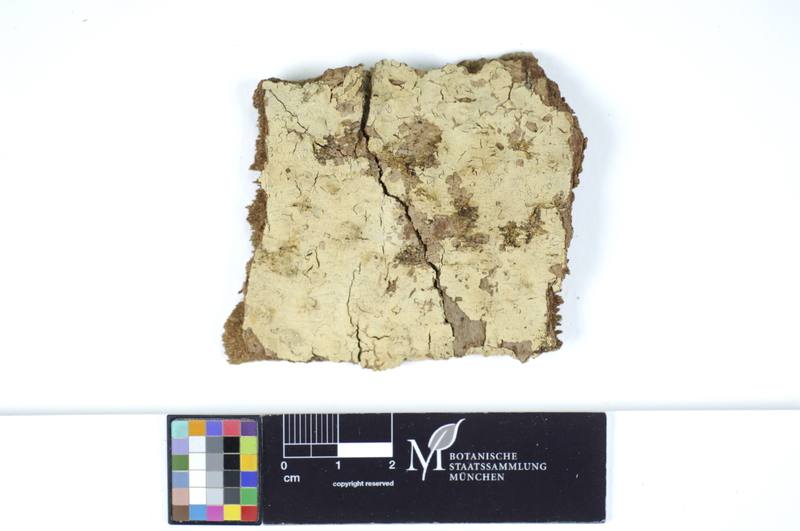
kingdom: Plantae
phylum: Tracheophyta
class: Pinopsida
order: Pinales
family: Pinaceae
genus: Abies
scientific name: Abies
